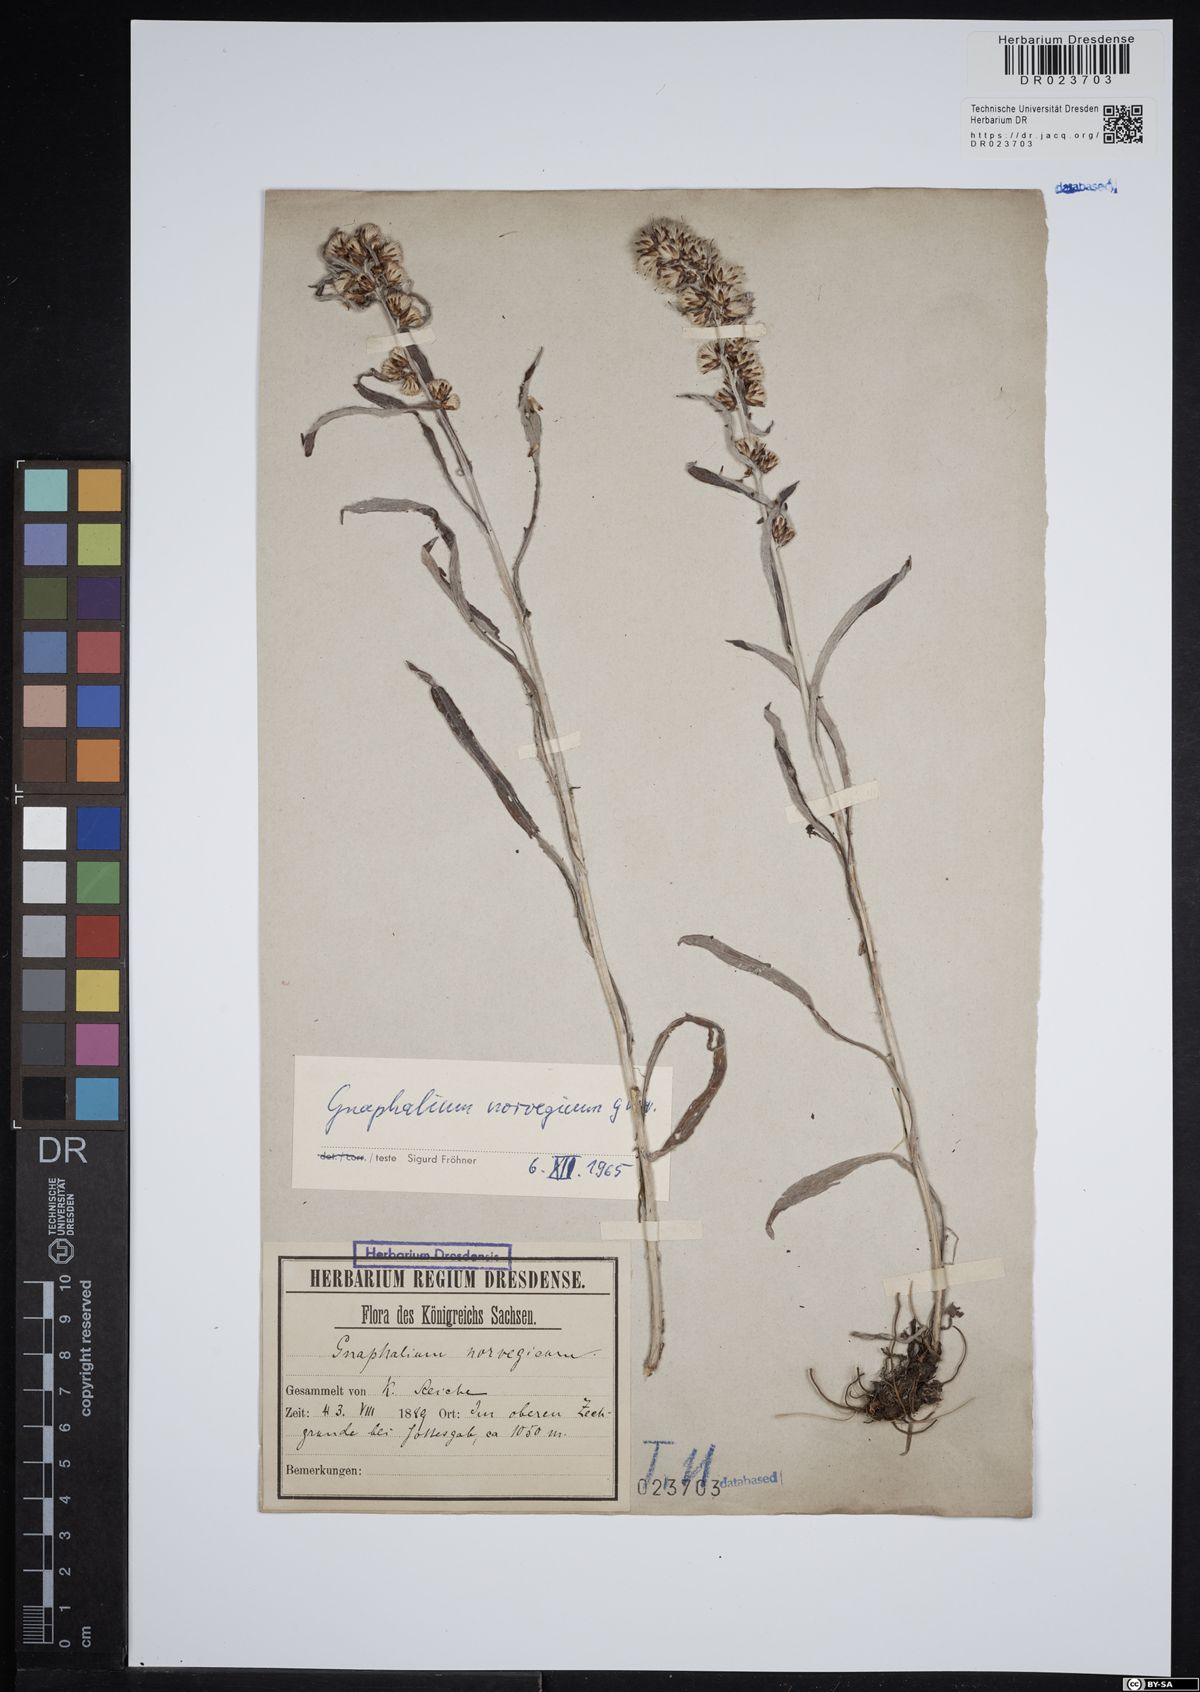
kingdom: Plantae
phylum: Tracheophyta
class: Magnoliopsida
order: Asterales
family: Asteraceae
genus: Omalotheca
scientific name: Omalotheca norvegica
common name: Norwegian arctic-cudweed
